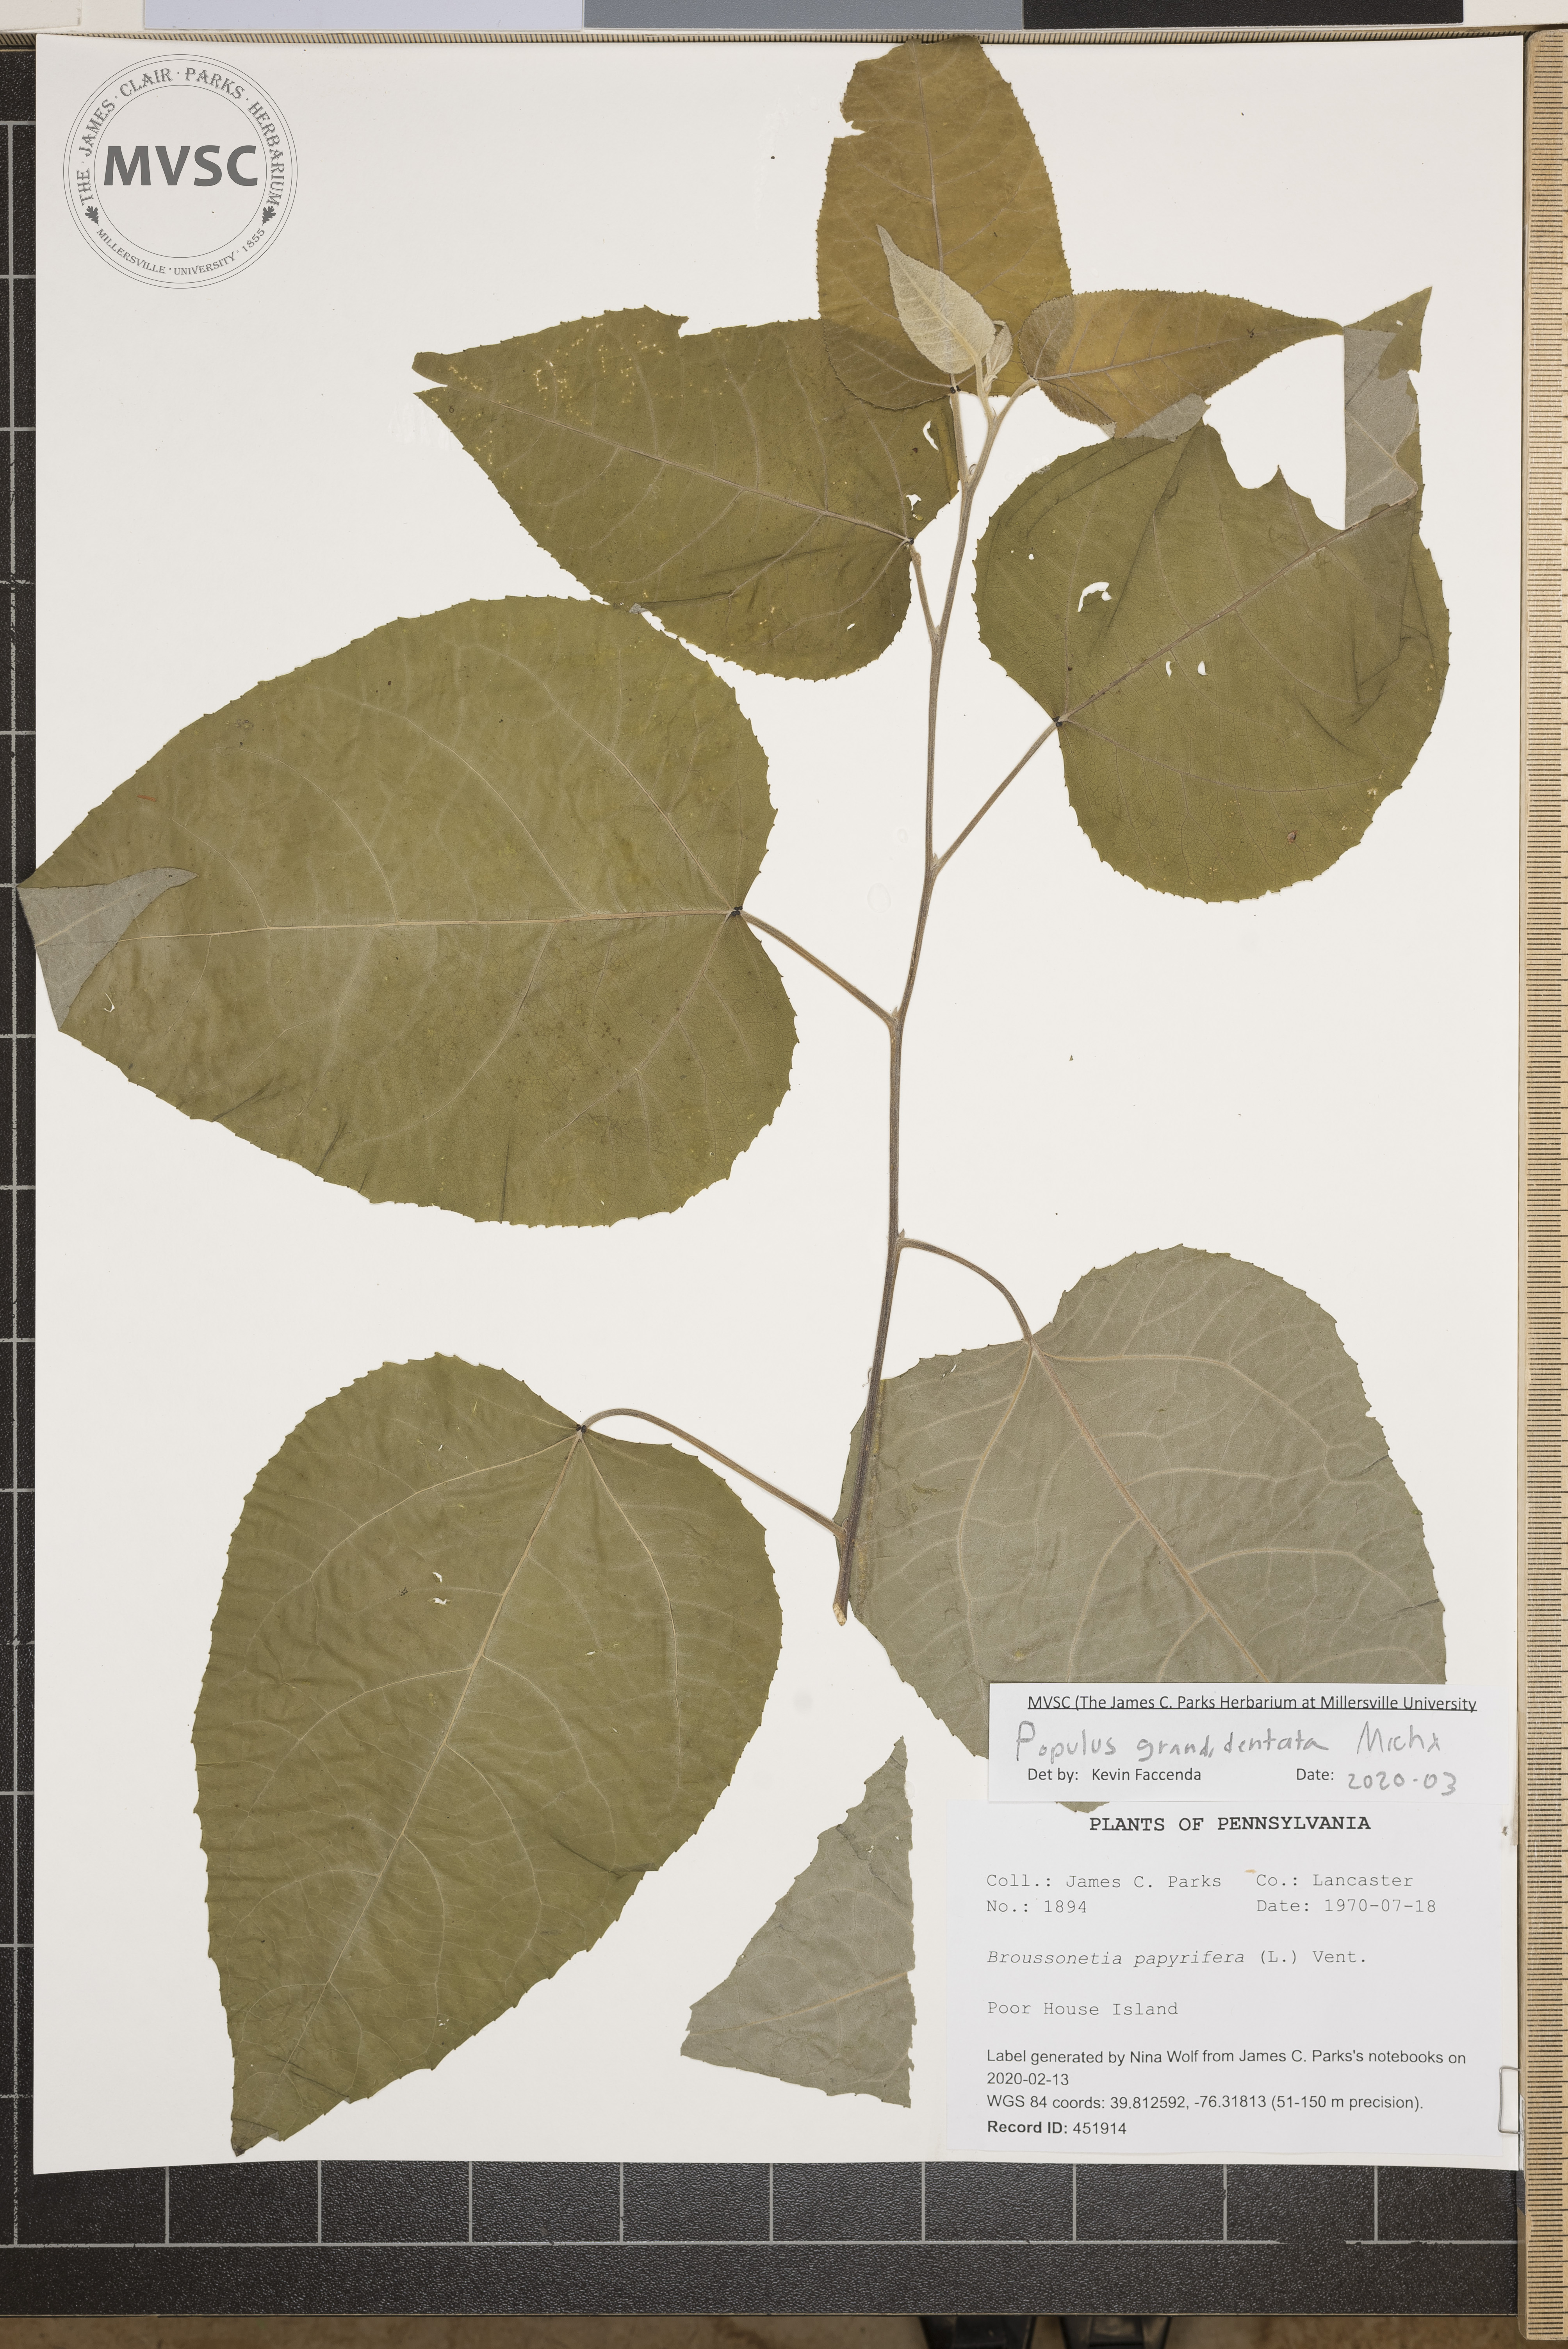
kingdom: Plantae
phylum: Tracheophyta
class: Magnoliopsida
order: Malpighiales
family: Salicaceae
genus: Populus
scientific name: Populus grandidentata
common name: Bigtooth aspen
